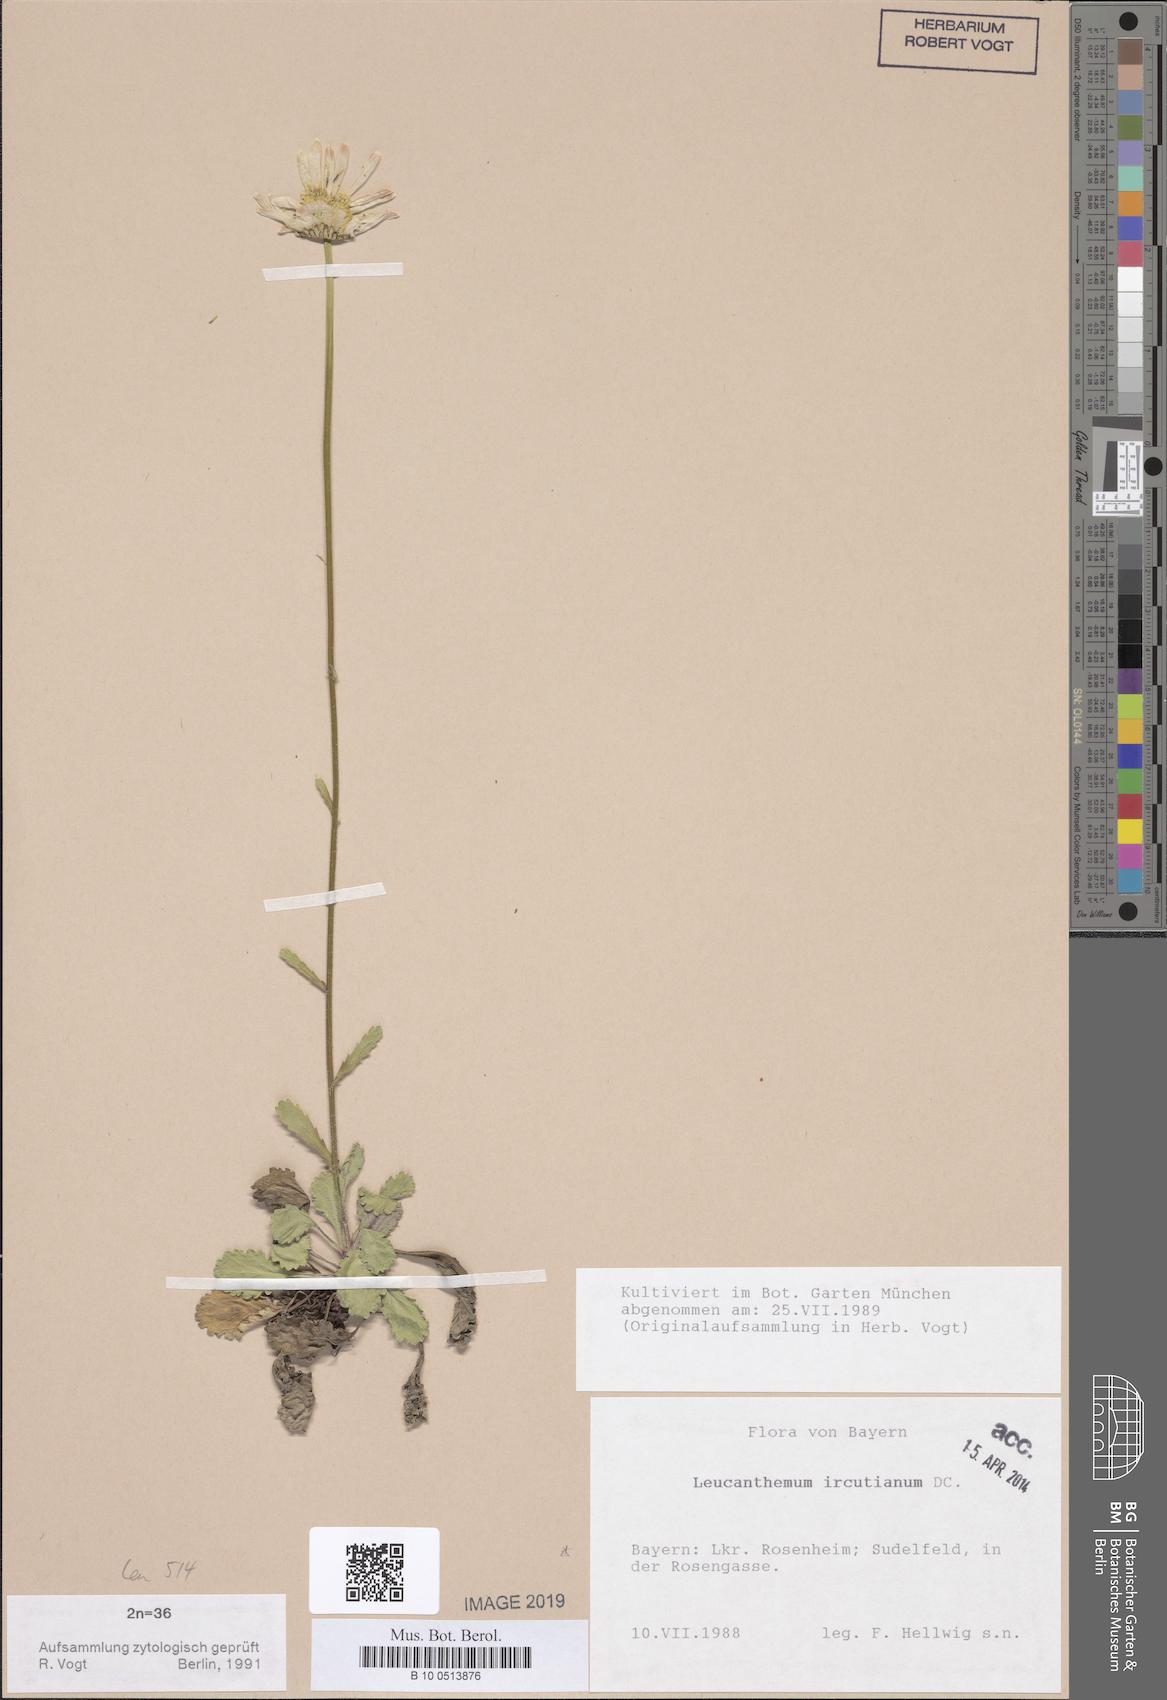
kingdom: Plantae
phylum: Tracheophyta
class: Magnoliopsida
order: Asterales
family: Asteraceae
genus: Leucanthemum
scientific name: Leucanthemum ircutianum
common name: Daisy
